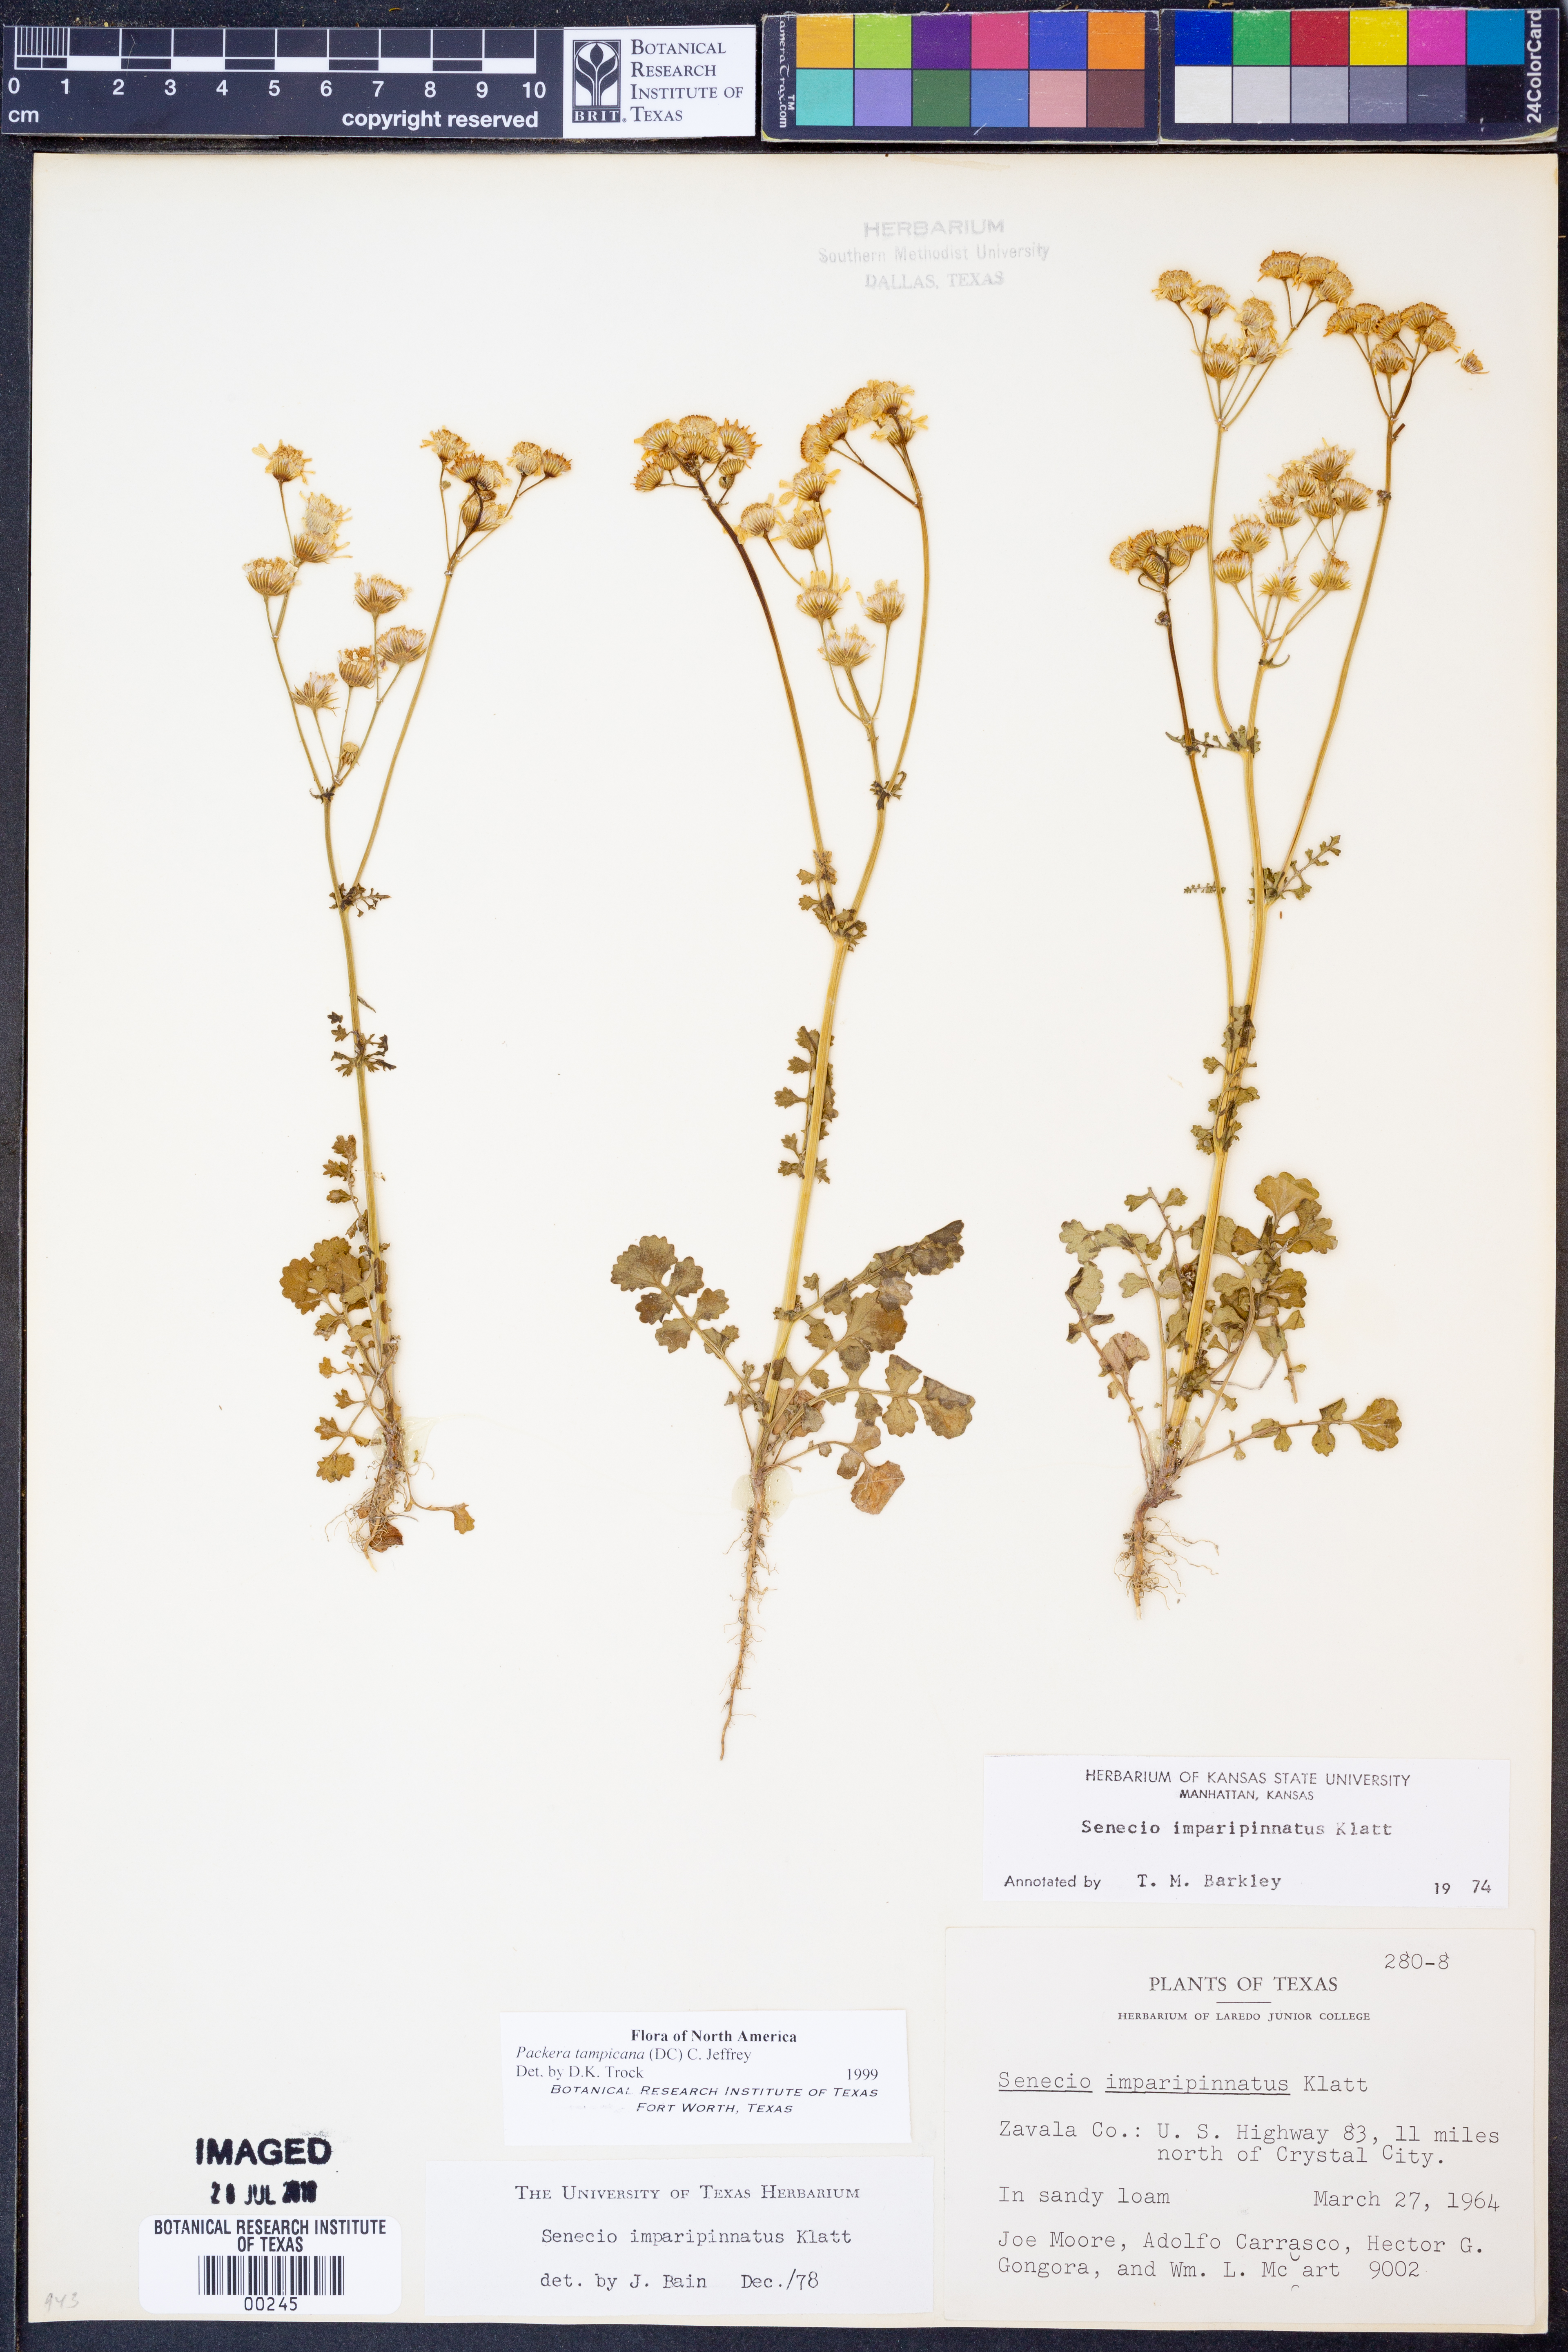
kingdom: Plantae
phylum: Tracheophyta
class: Magnoliopsida
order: Asterales
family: Asteraceae
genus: Packera
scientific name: Packera tampicana
